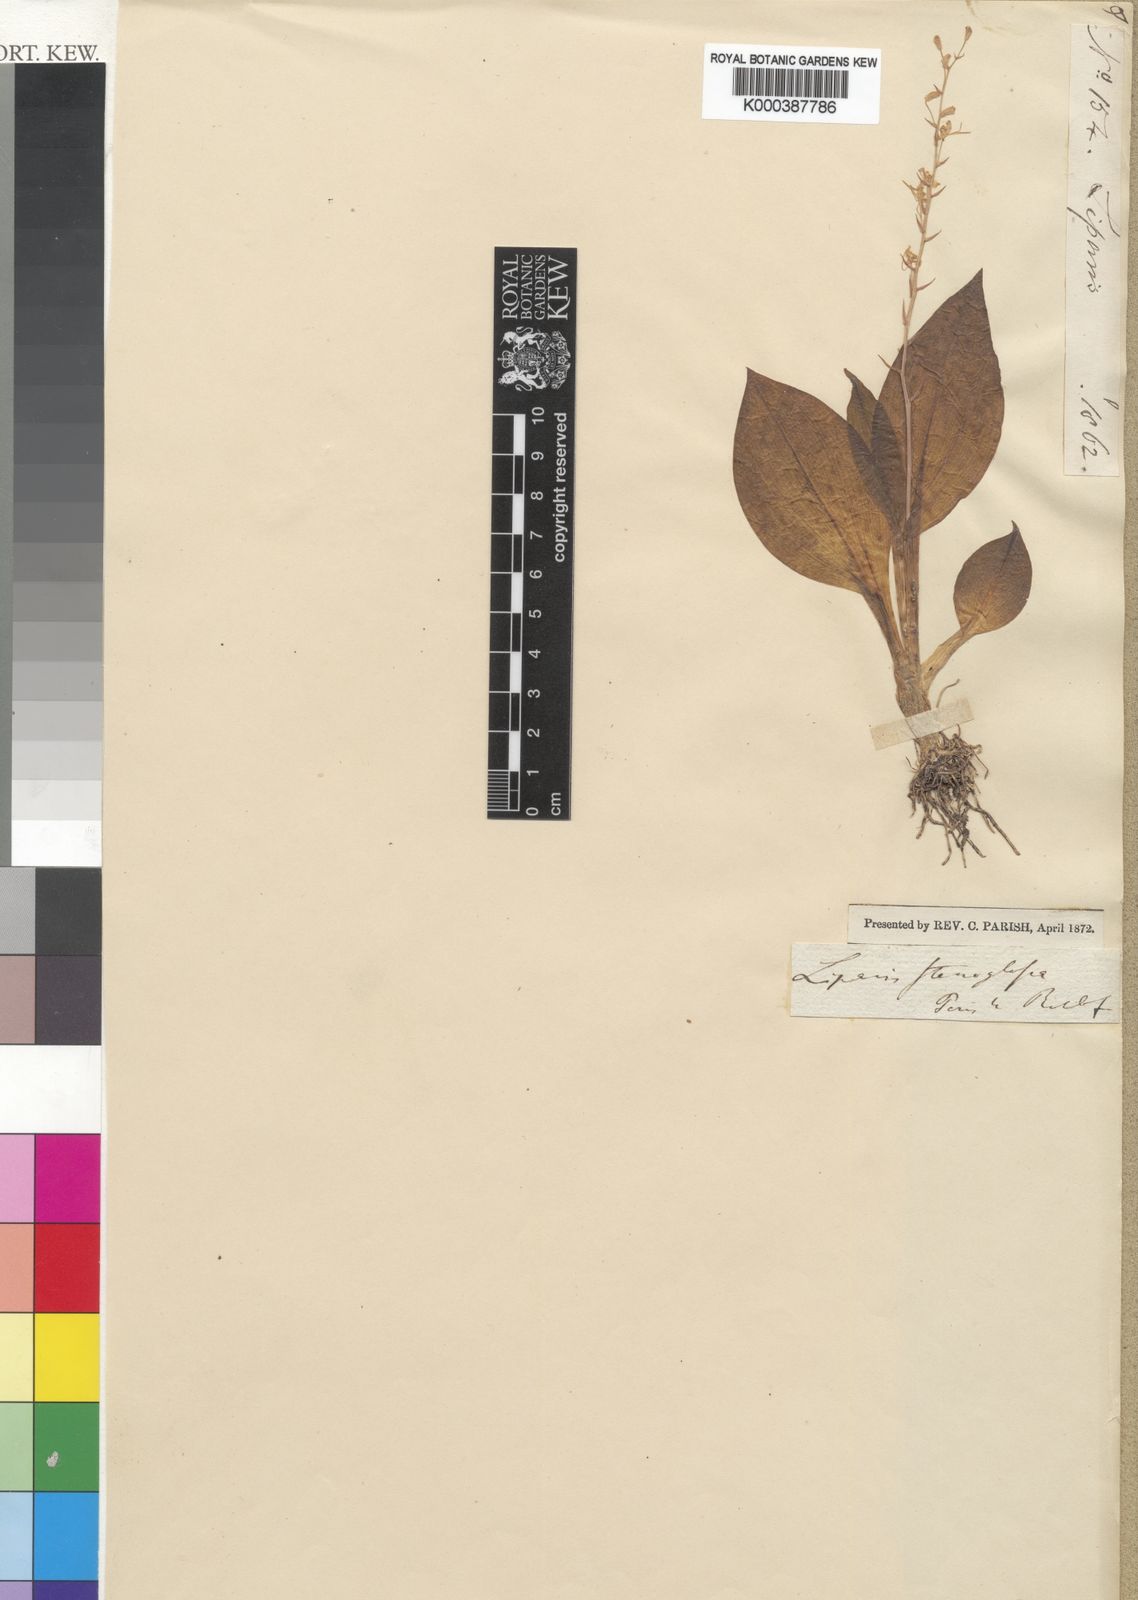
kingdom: Plantae
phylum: Tracheophyta
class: Liliopsida
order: Asparagales
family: Orchidaceae
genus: Liparis
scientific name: Liparis stenoglossa
